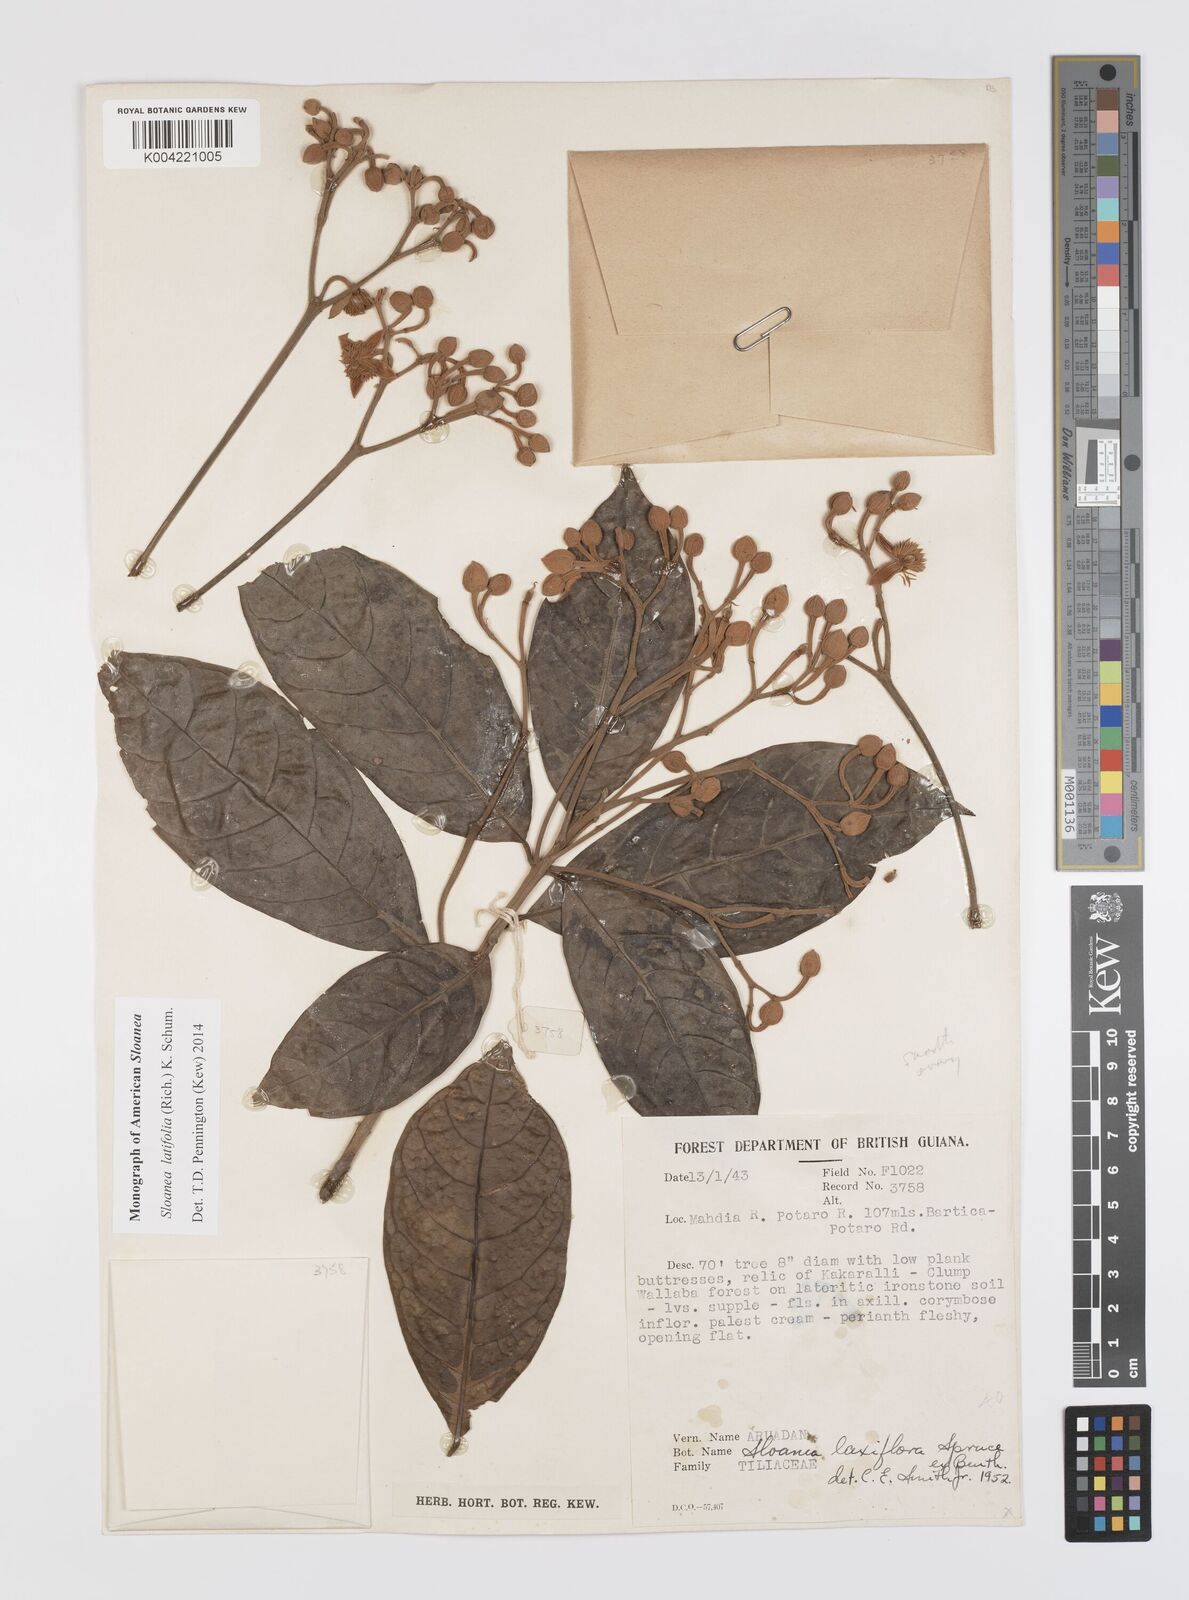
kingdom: Plantae
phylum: Tracheophyta
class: Magnoliopsida
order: Oxalidales
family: Elaeocarpaceae
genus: Sloanea
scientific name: Sloanea latifolia
